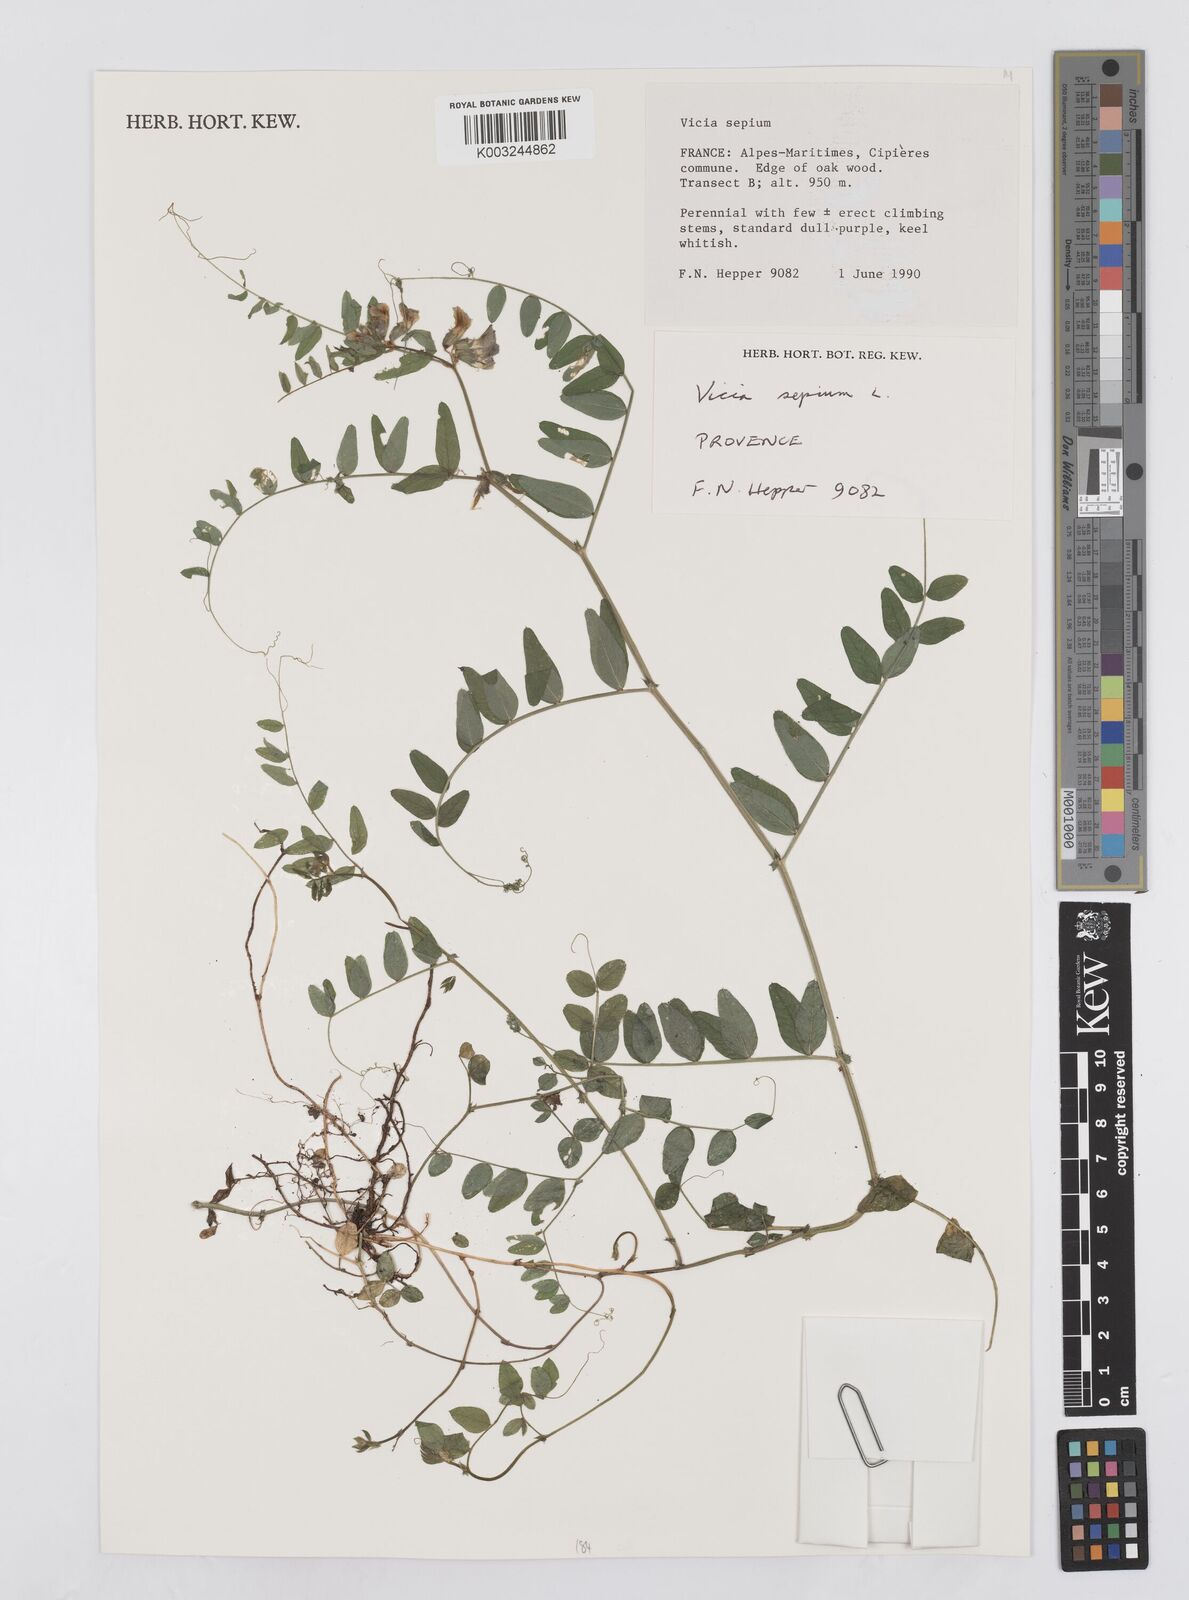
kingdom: Plantae
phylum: Tracheophyta
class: Magnoliopsida
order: Fabales
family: Fabaceae
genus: Vicia
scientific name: Vicia sepium
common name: Bush vetch
